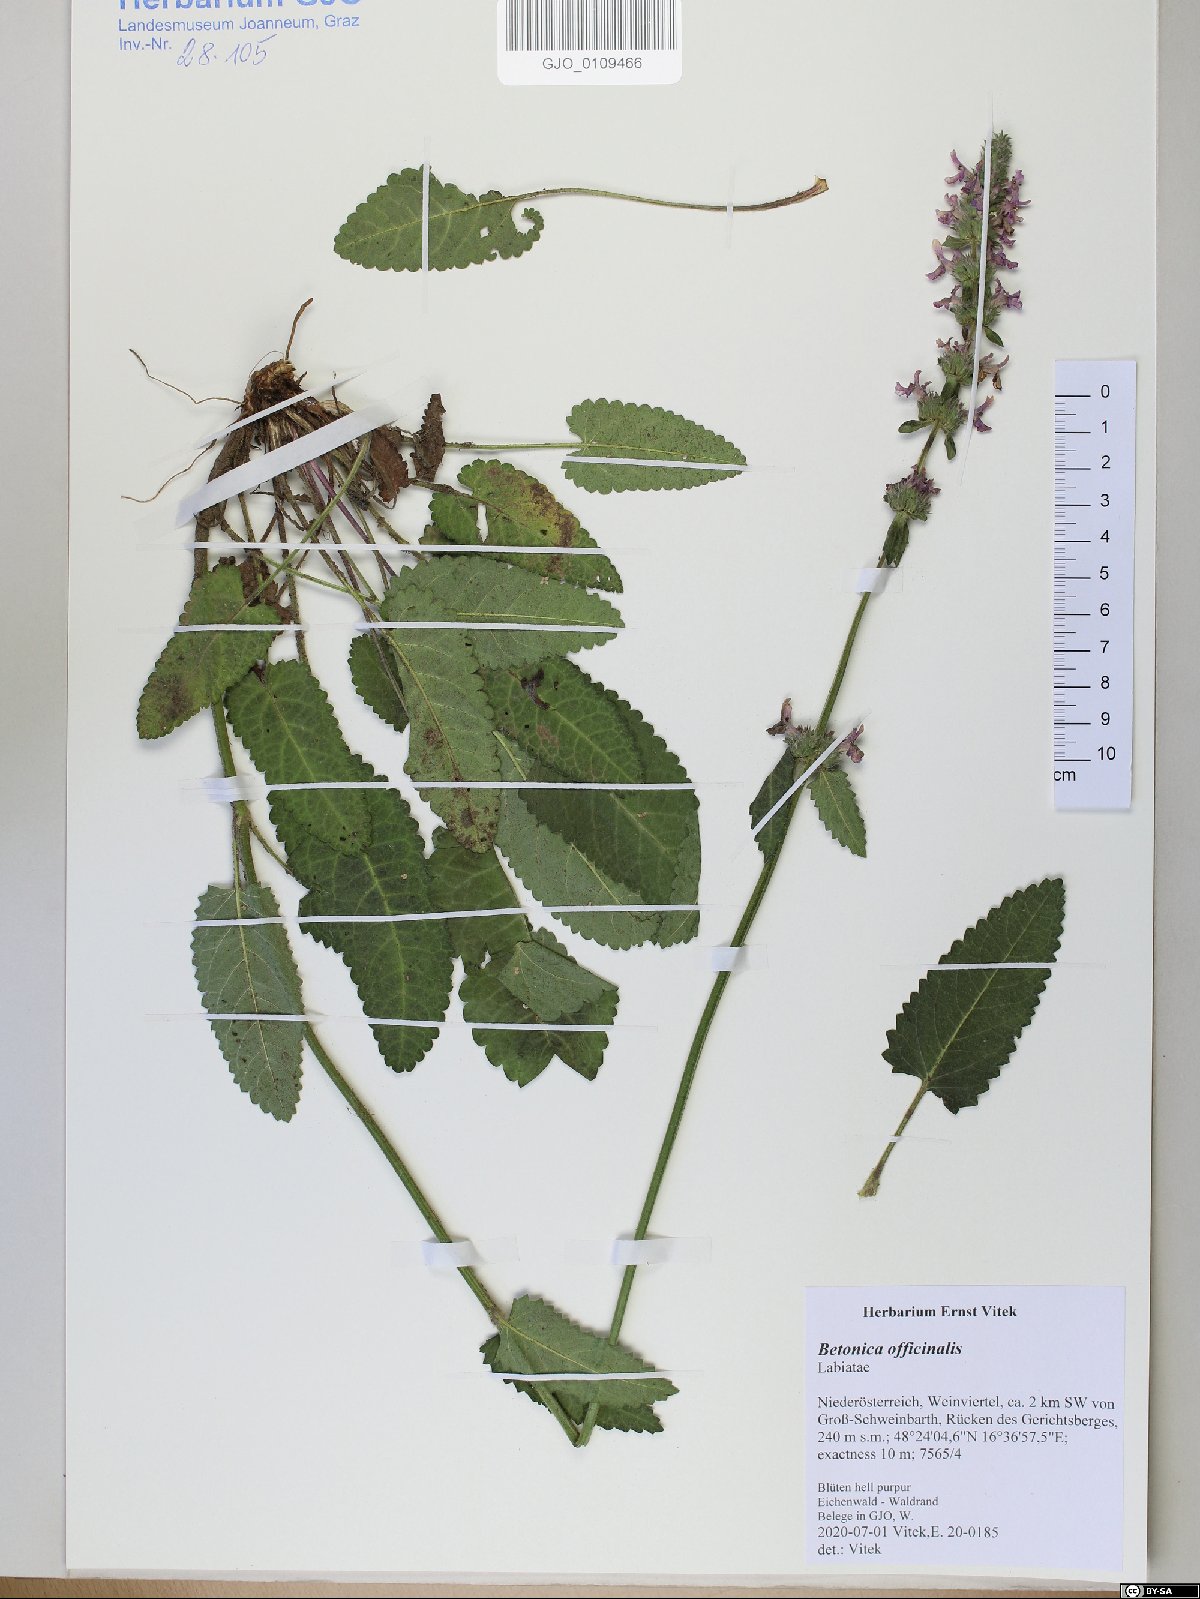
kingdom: Plantae
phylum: Tracheophyta
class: Magnoliopsida
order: Lamiales
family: Lamiaceae
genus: Betonica
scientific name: Betonica officinalis
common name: Bishop's-wort
